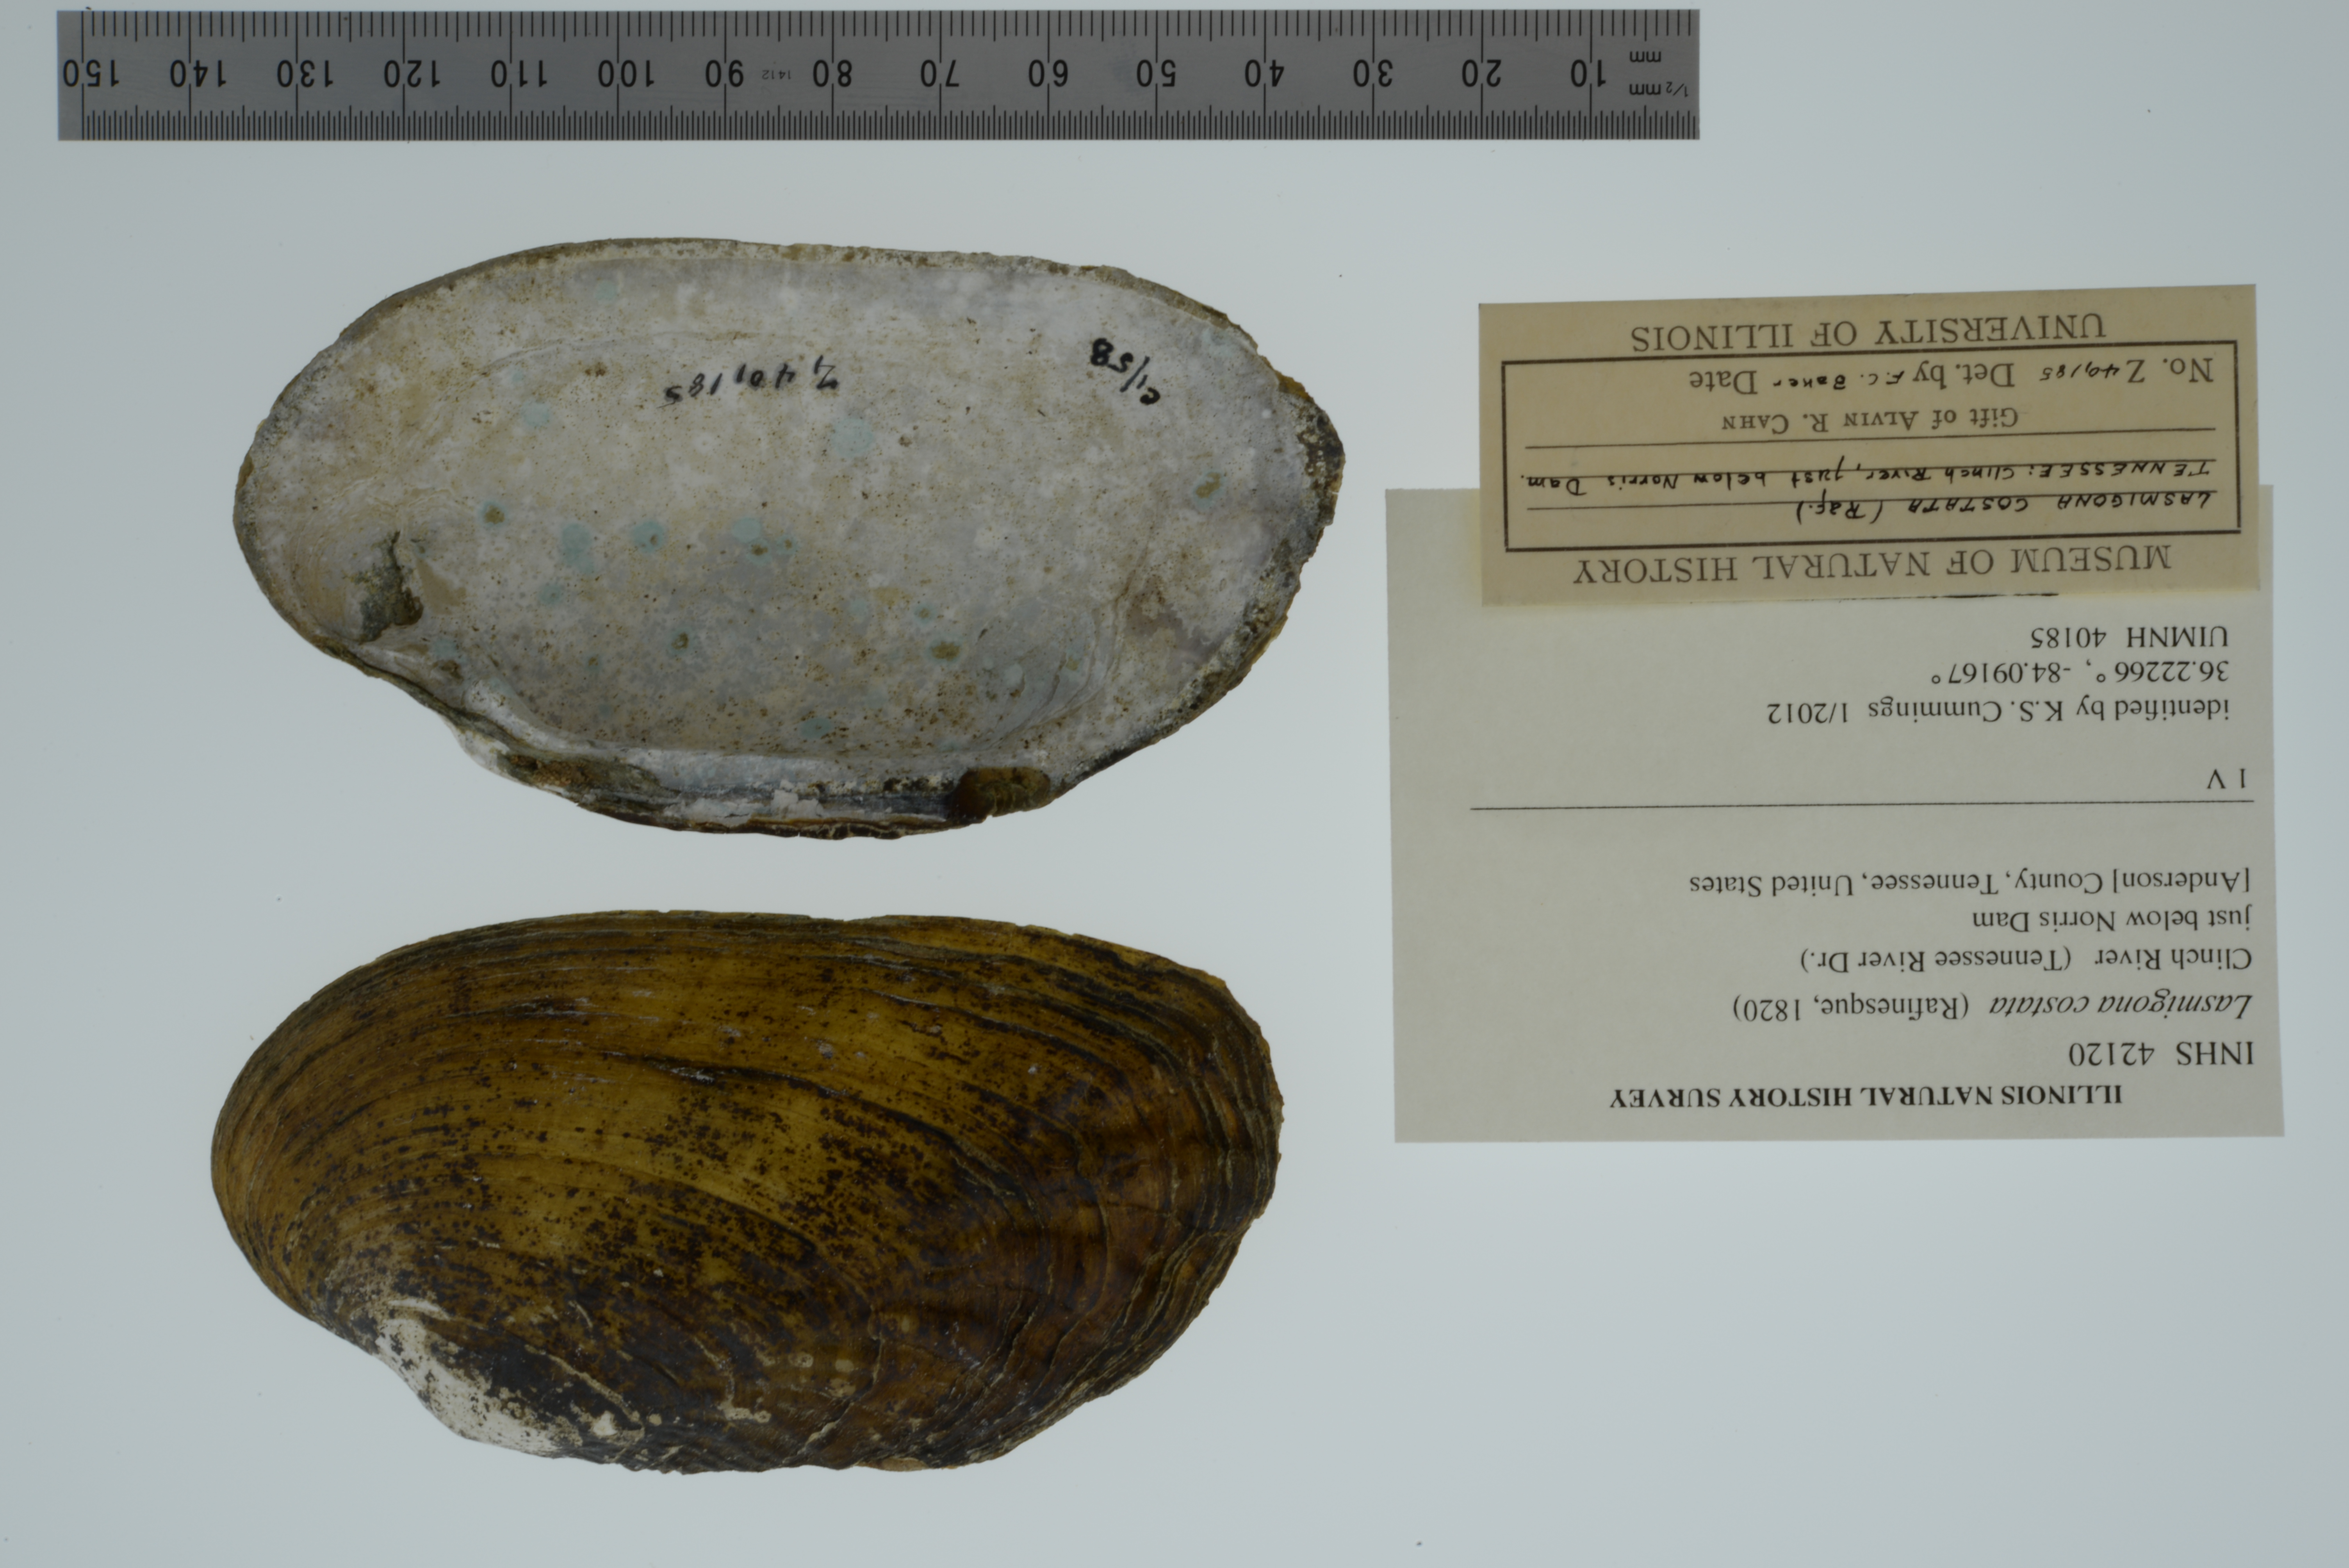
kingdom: Animalia
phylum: Mollusca
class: Bivalvia
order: Unionida
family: Unionidae
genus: Lasmigona
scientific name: Lasmigona costata
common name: Flutedshell
